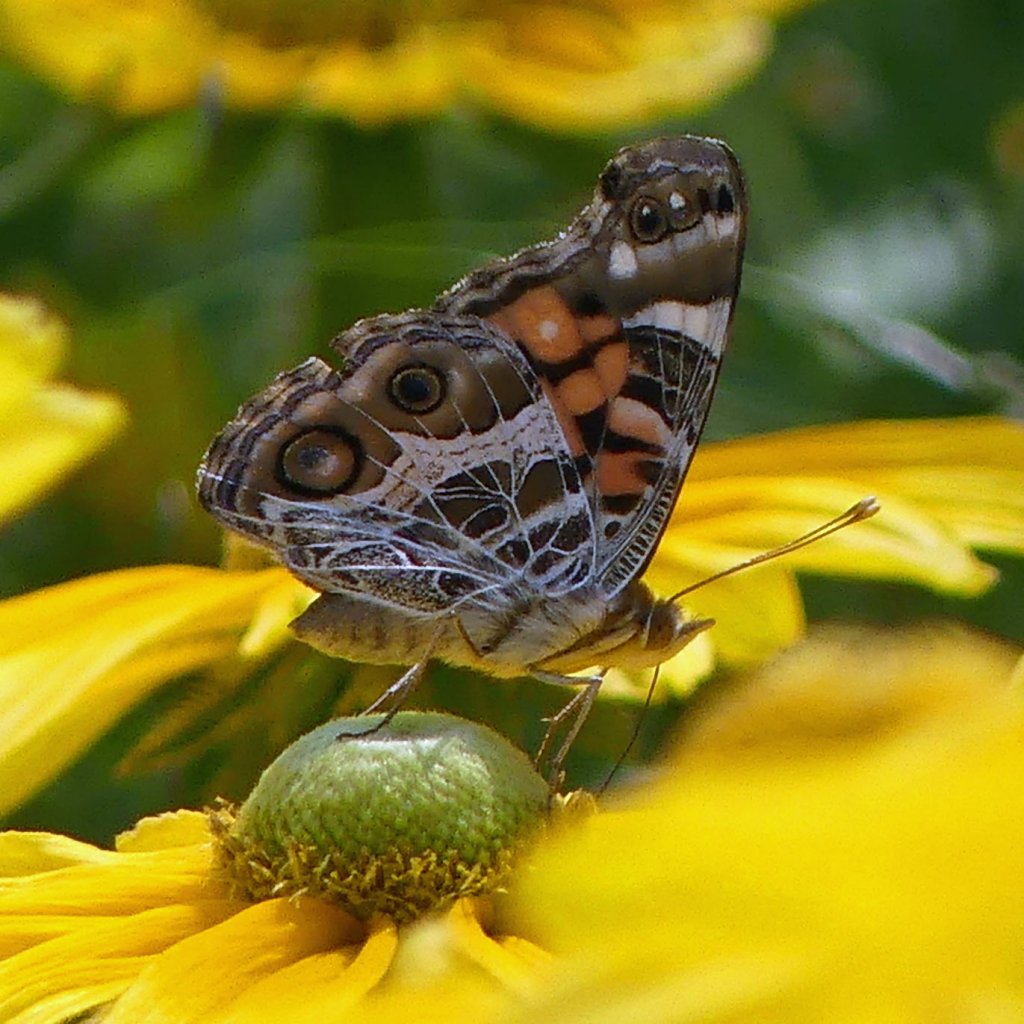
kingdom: Animalia
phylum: Arthropoda
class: Insecta
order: Lepidoptera
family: Nymphalidae
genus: Vanessa
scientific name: Vanessa virginiensis
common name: American Lady
